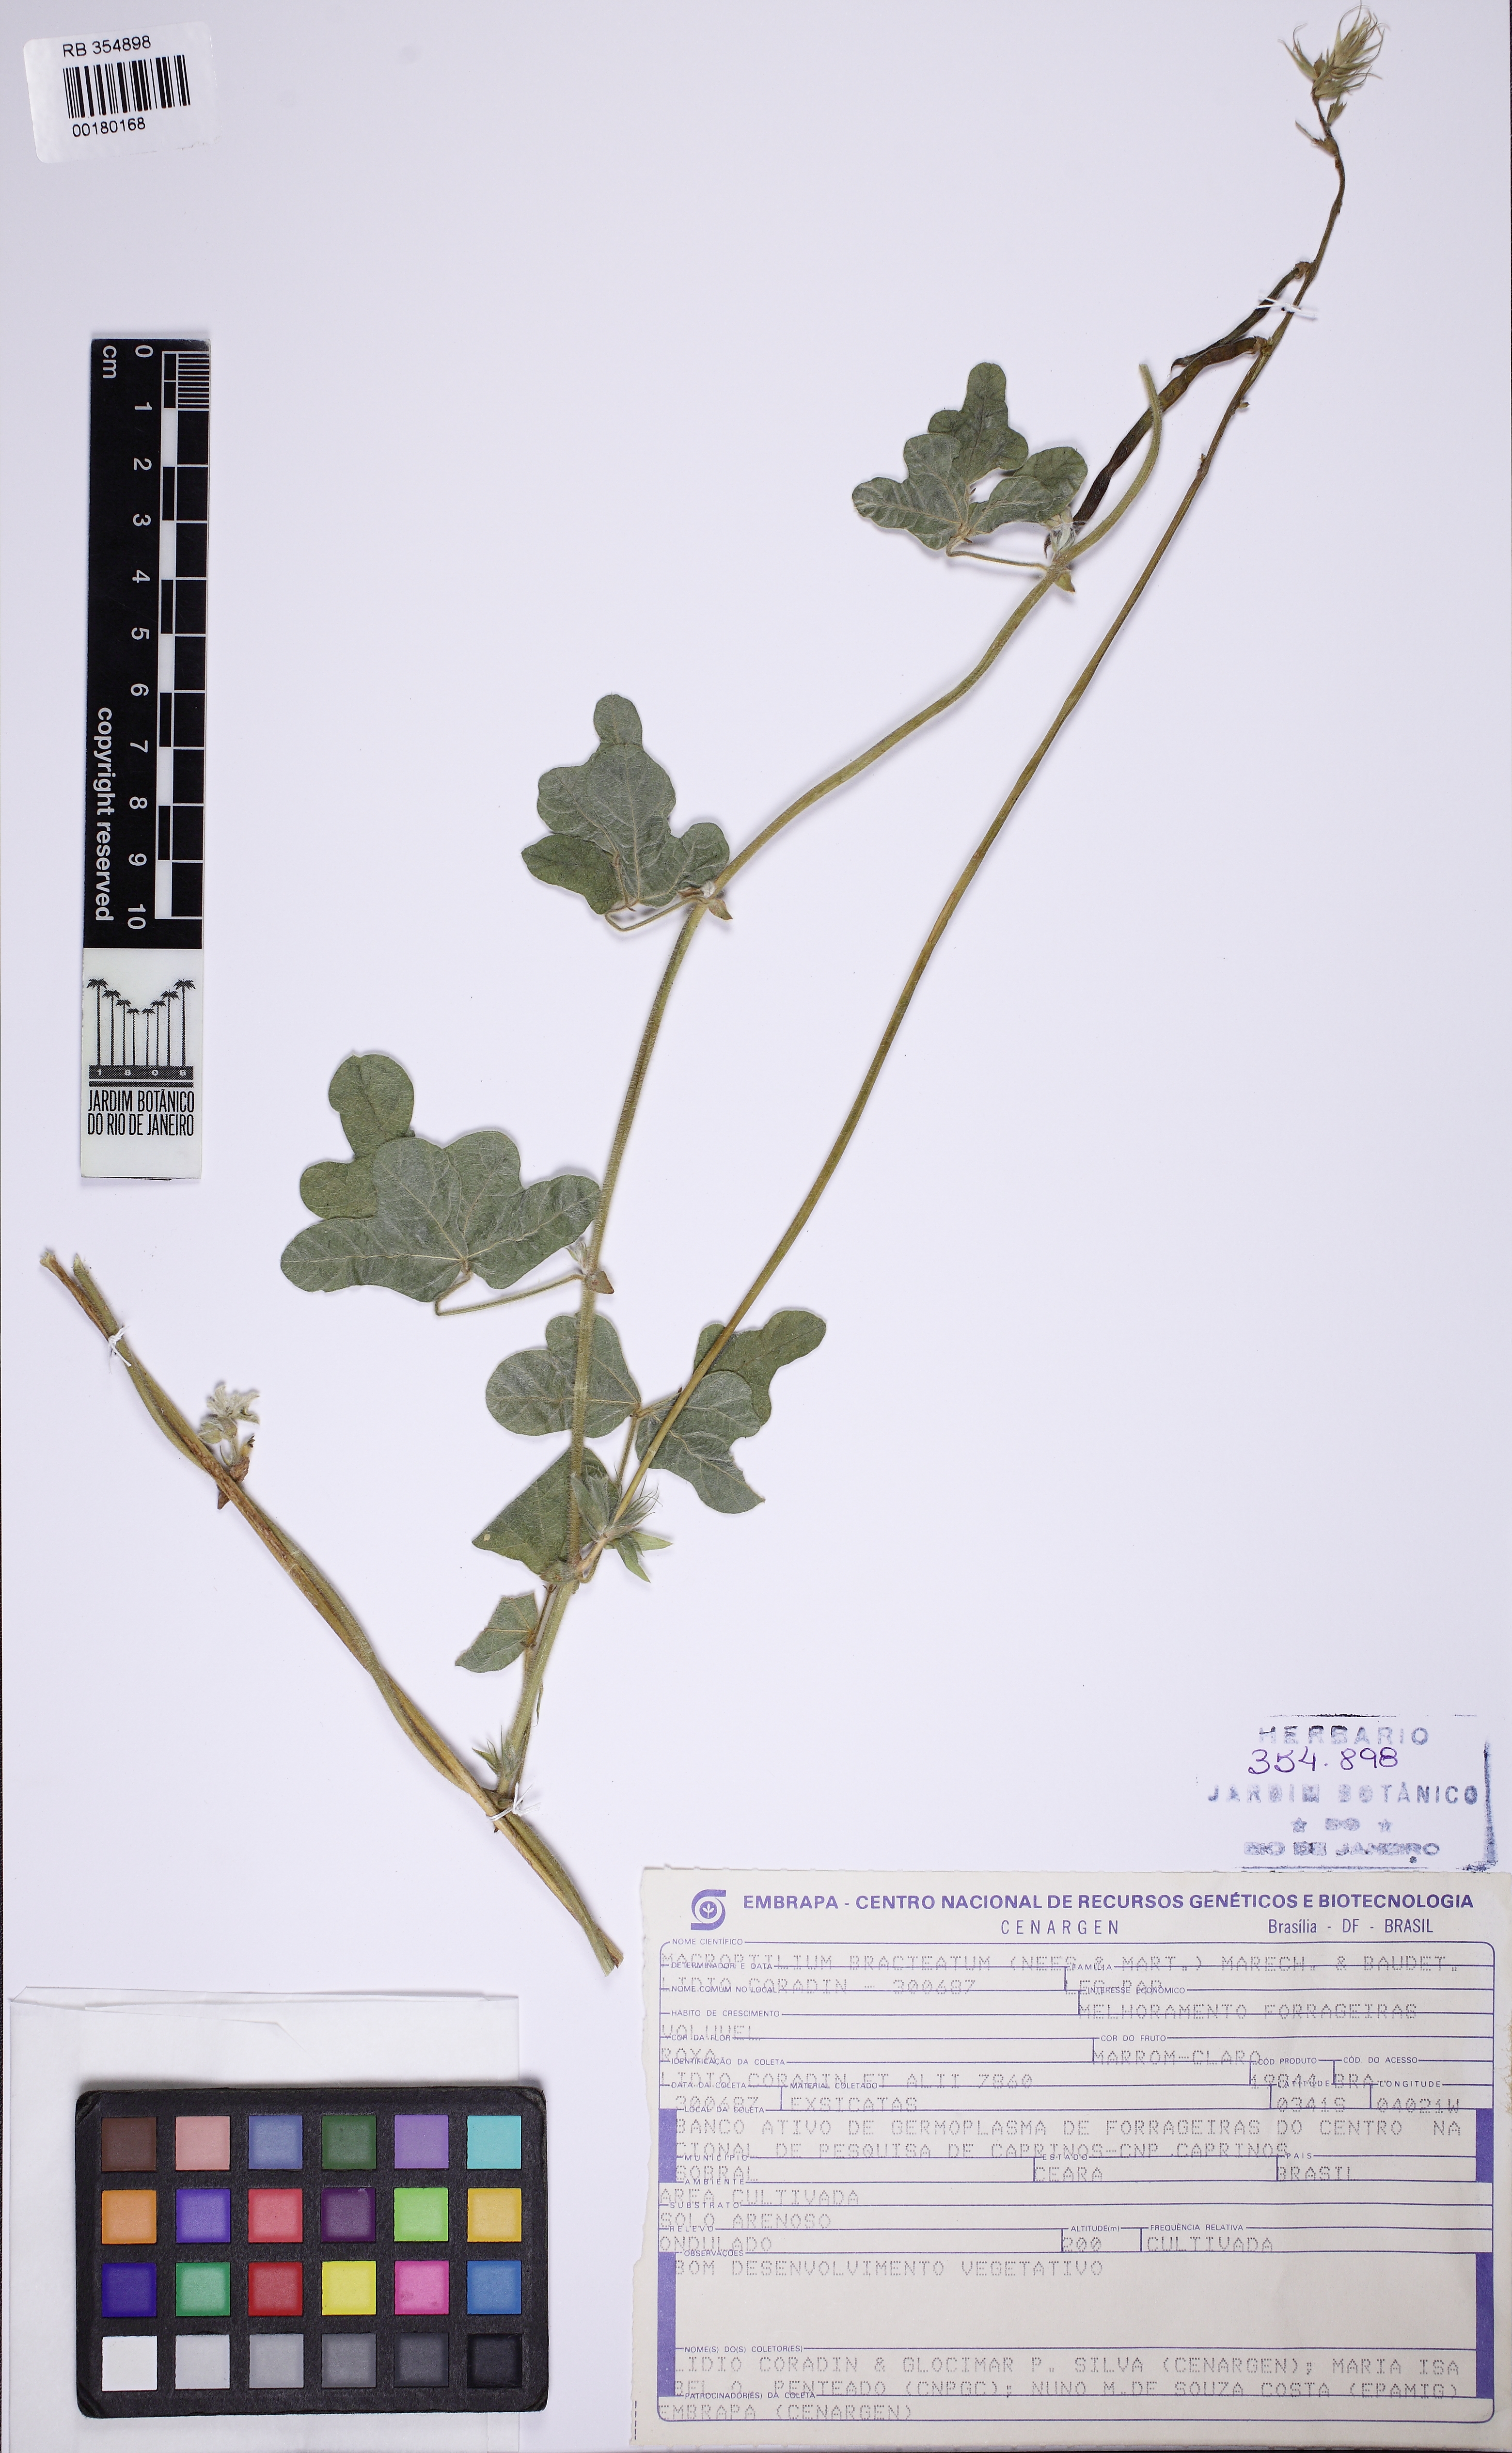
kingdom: Plantae
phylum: Tracheophyta
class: Magnoliopsida
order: Fabales
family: Fabaceae
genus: Macroptilium
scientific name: Macroptilium bracteatum
